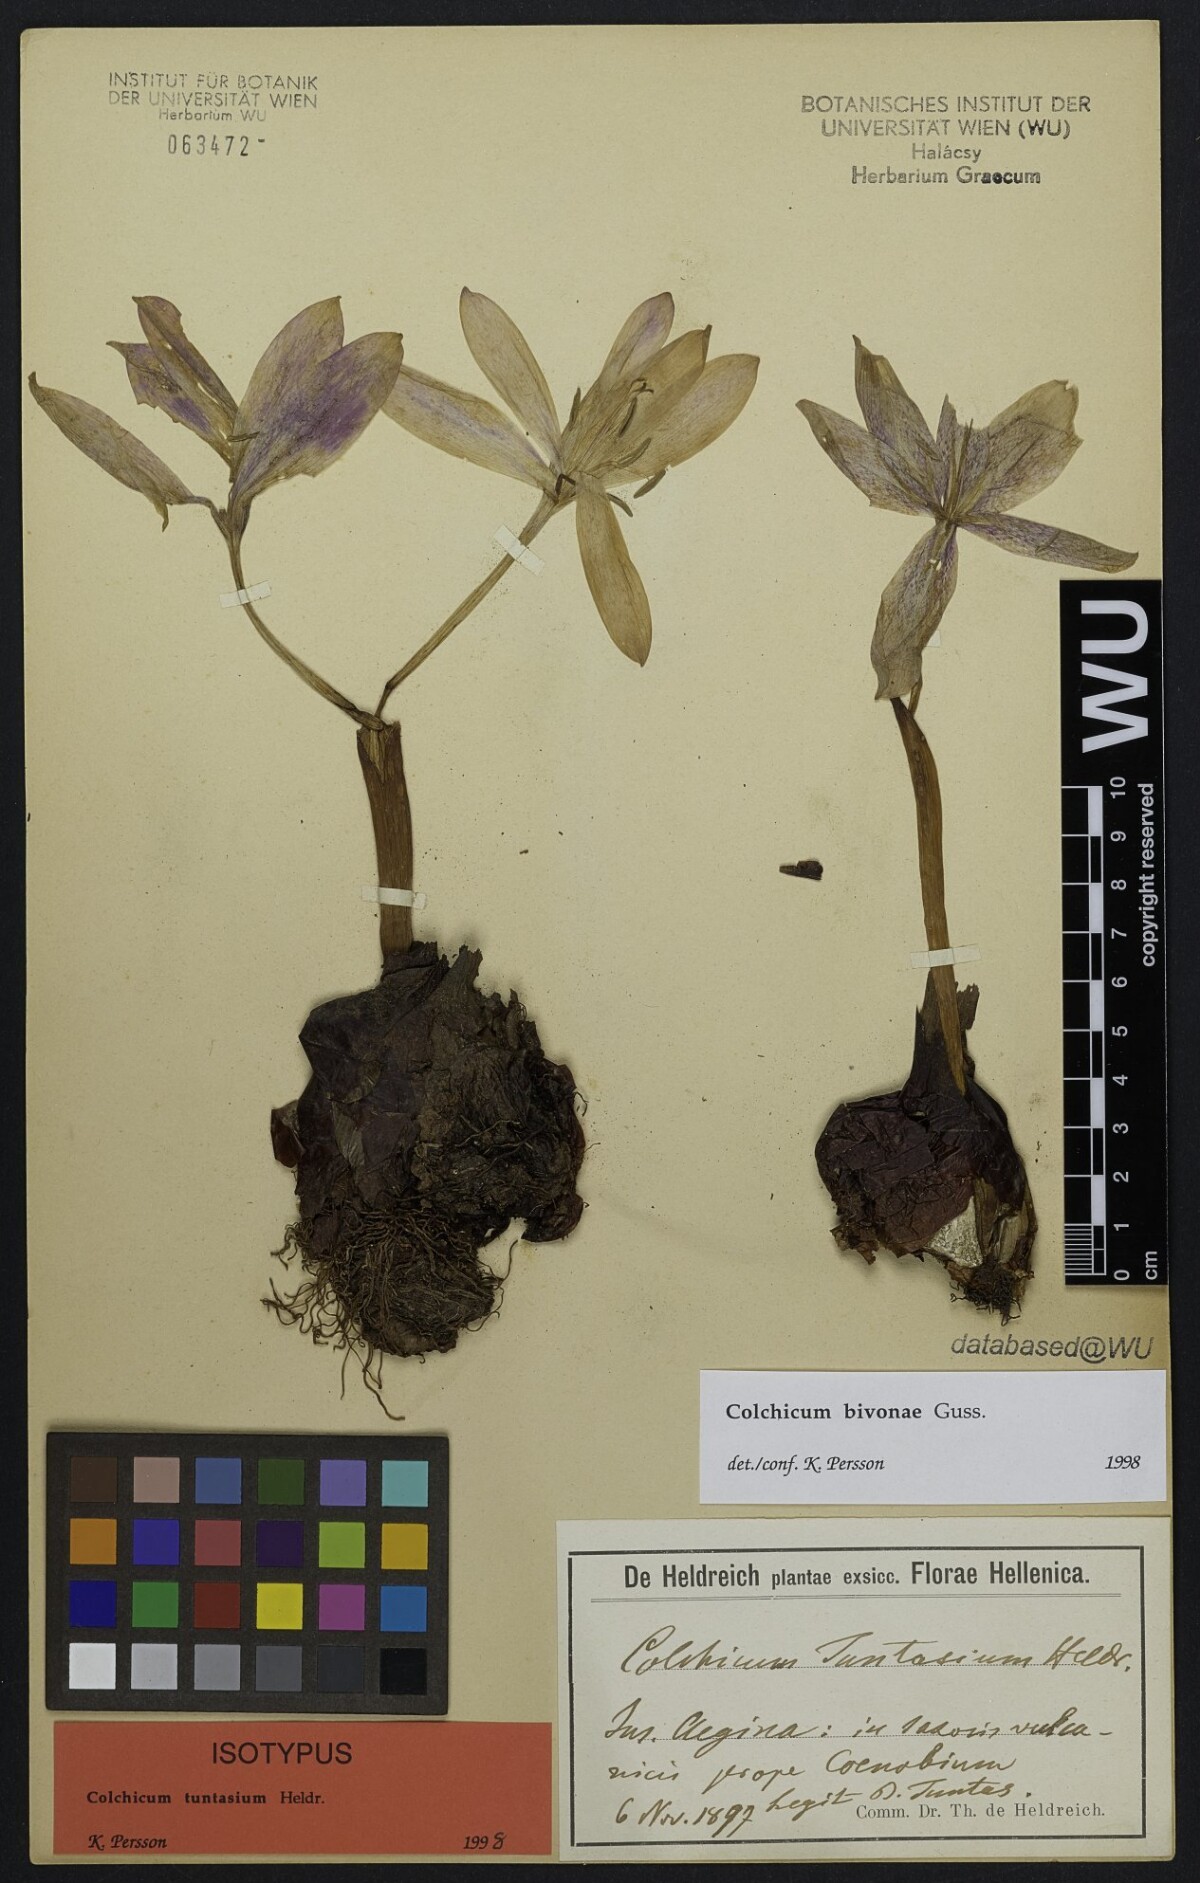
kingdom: Plantae
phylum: Tracheophyta
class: Liliopsida
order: Liliales
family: Colchicaceae
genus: Colchicum
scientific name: Colchicum bivonae
